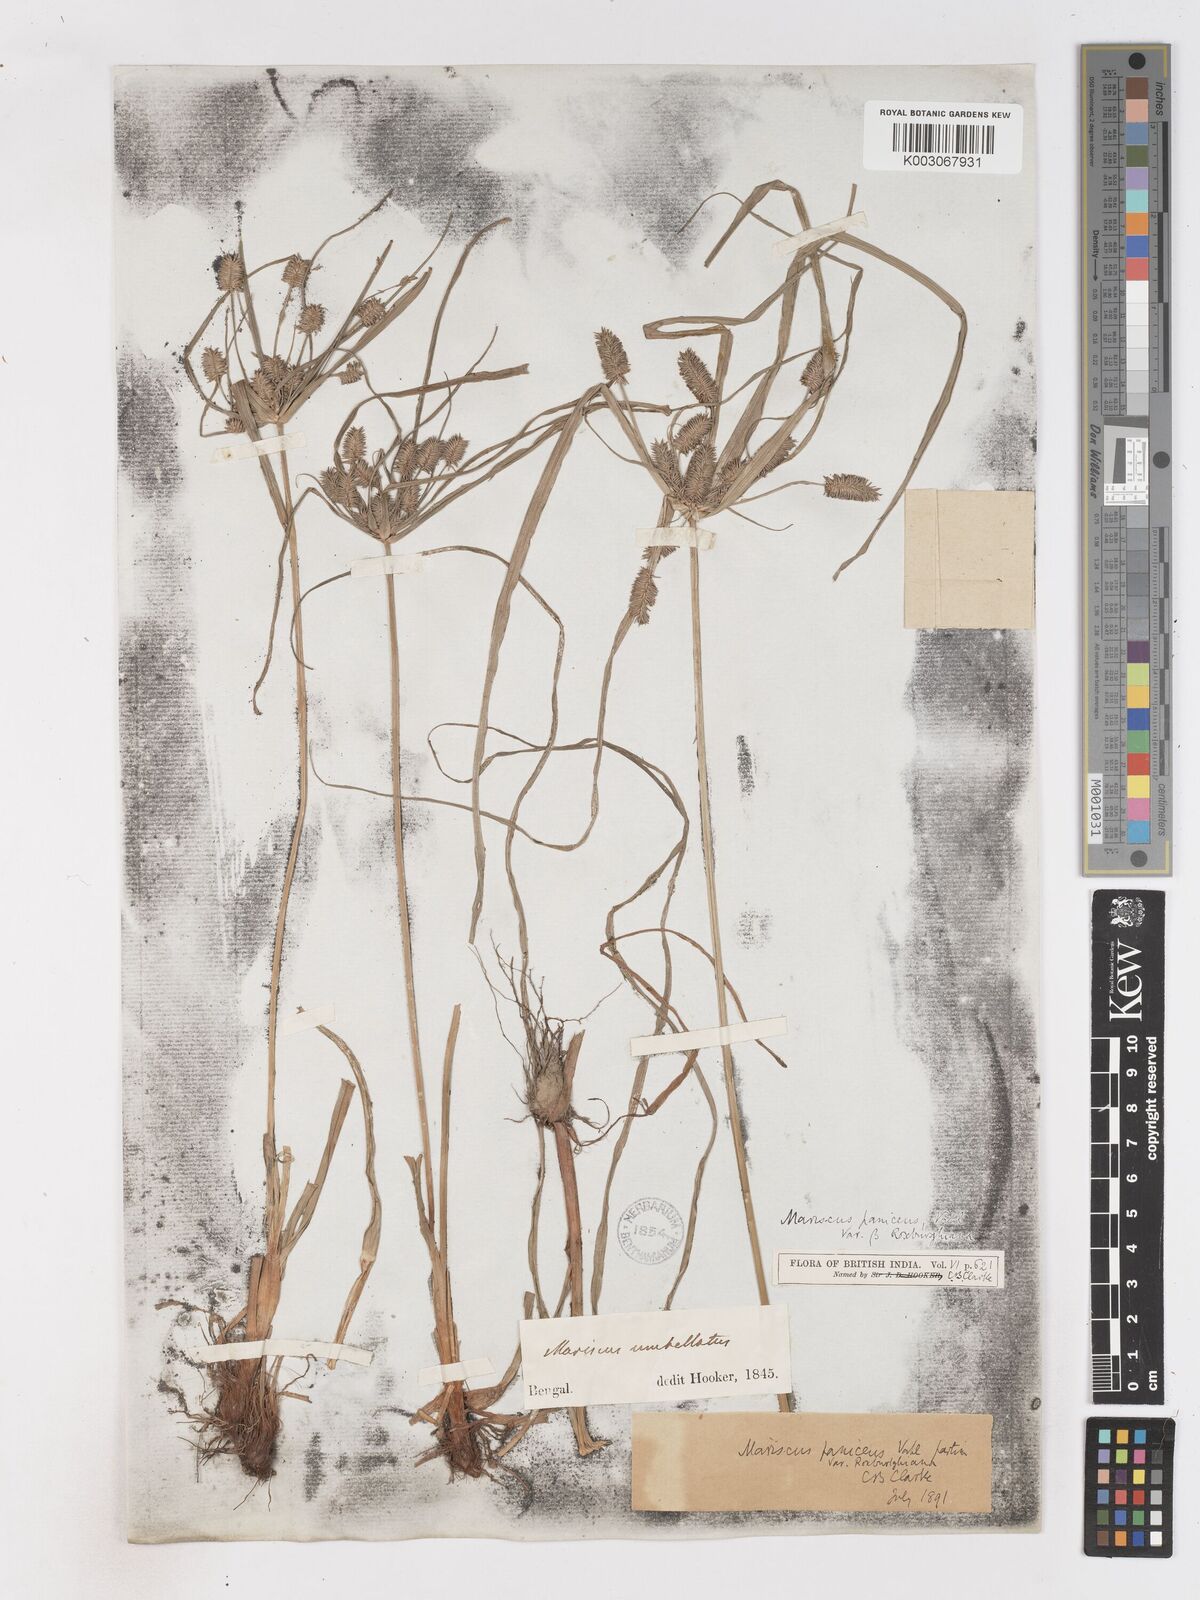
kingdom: Plantae
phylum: Tracheophyta
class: Liliopsida
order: Poales
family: Cyperaceae
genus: Cyperus
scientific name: Cyperus paniceus
